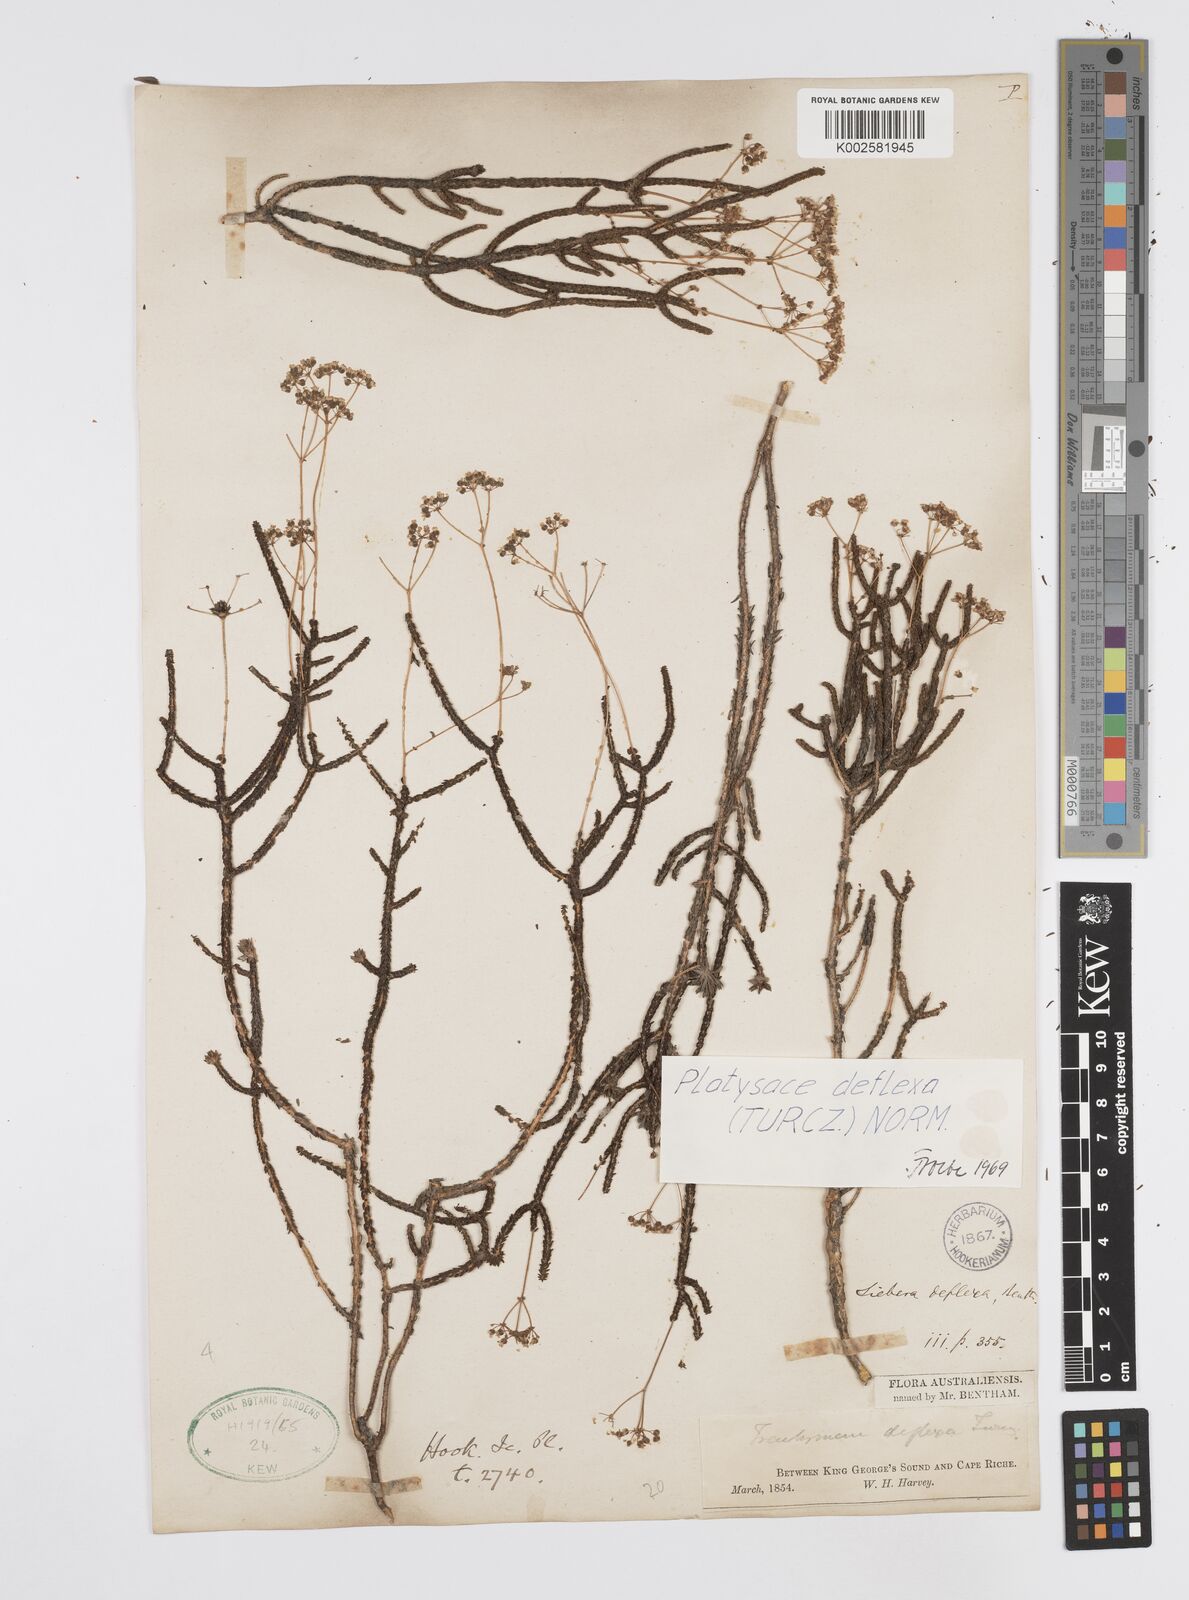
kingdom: Plantae
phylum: Tracheophyta
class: Magnoliopsida
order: Apiales
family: Apiaceae
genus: Platysace
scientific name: Platysace deflexa
